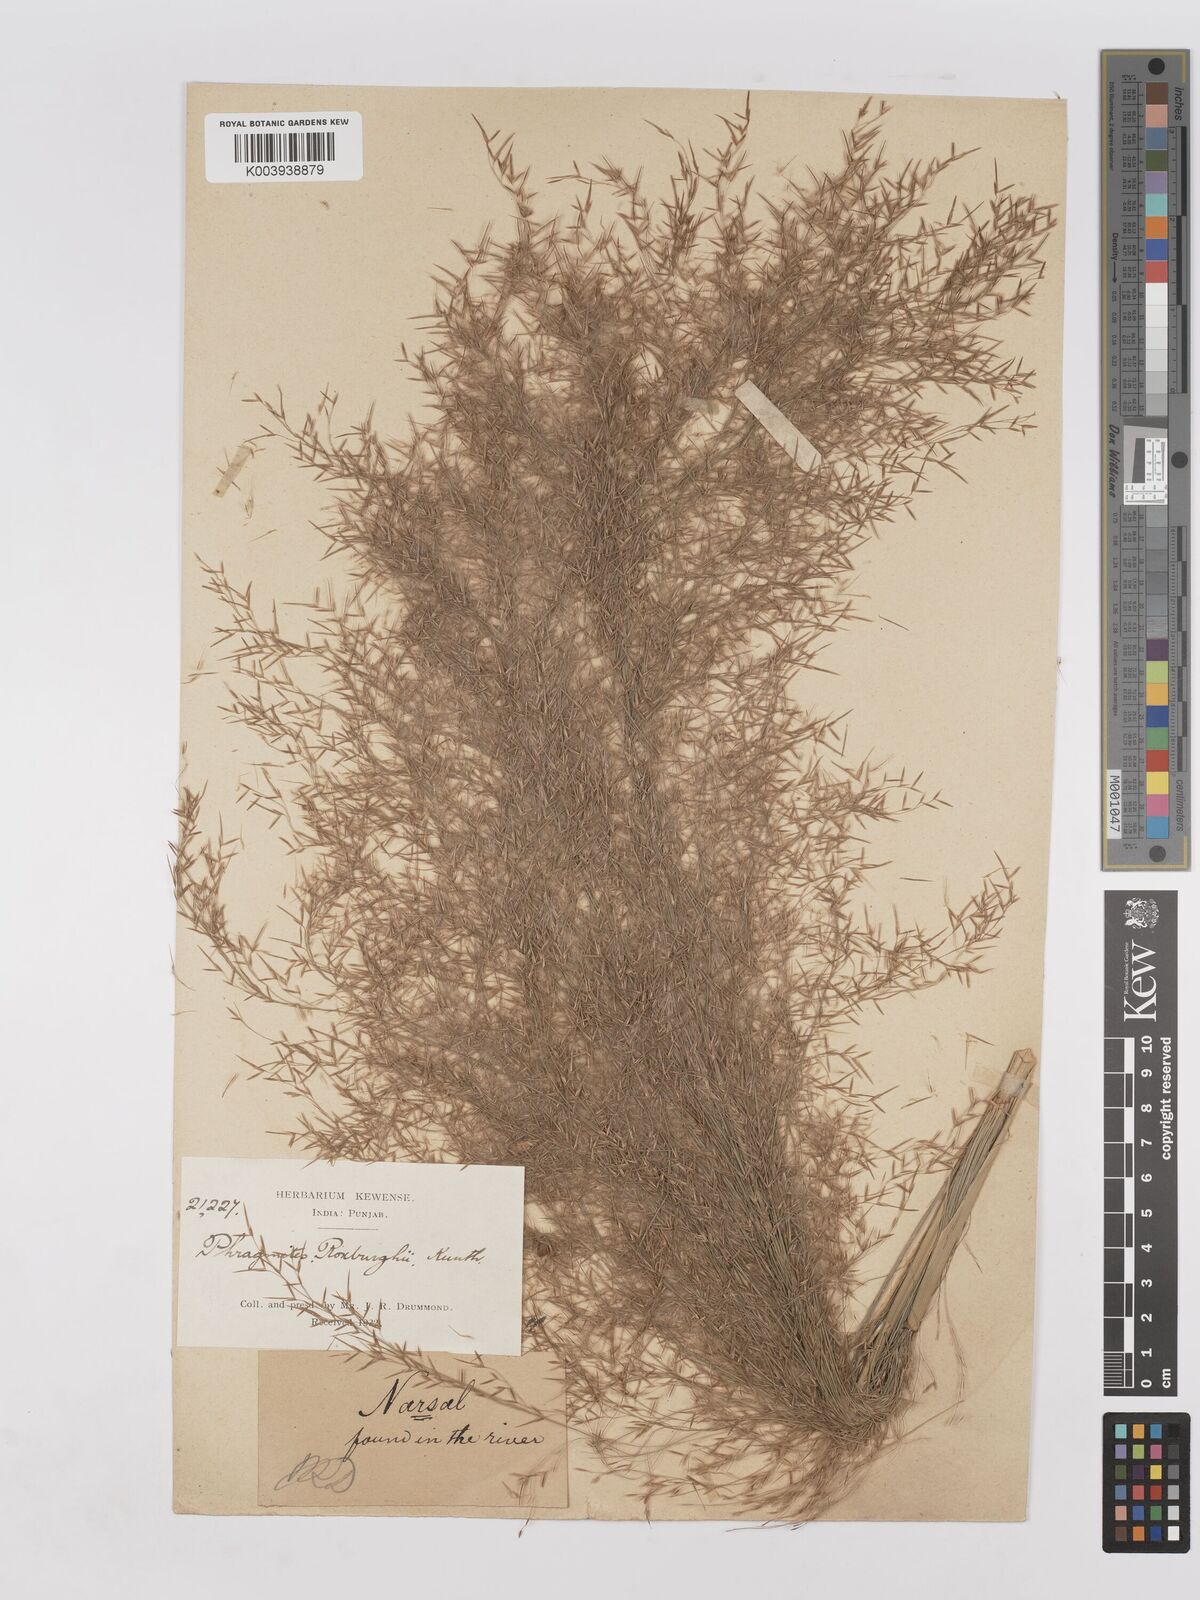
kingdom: Plantae
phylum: Tracheophyta
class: Liliopsida
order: Poales
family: Poaceae
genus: Phragmites
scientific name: Phragmites karka
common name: Tropical reed
